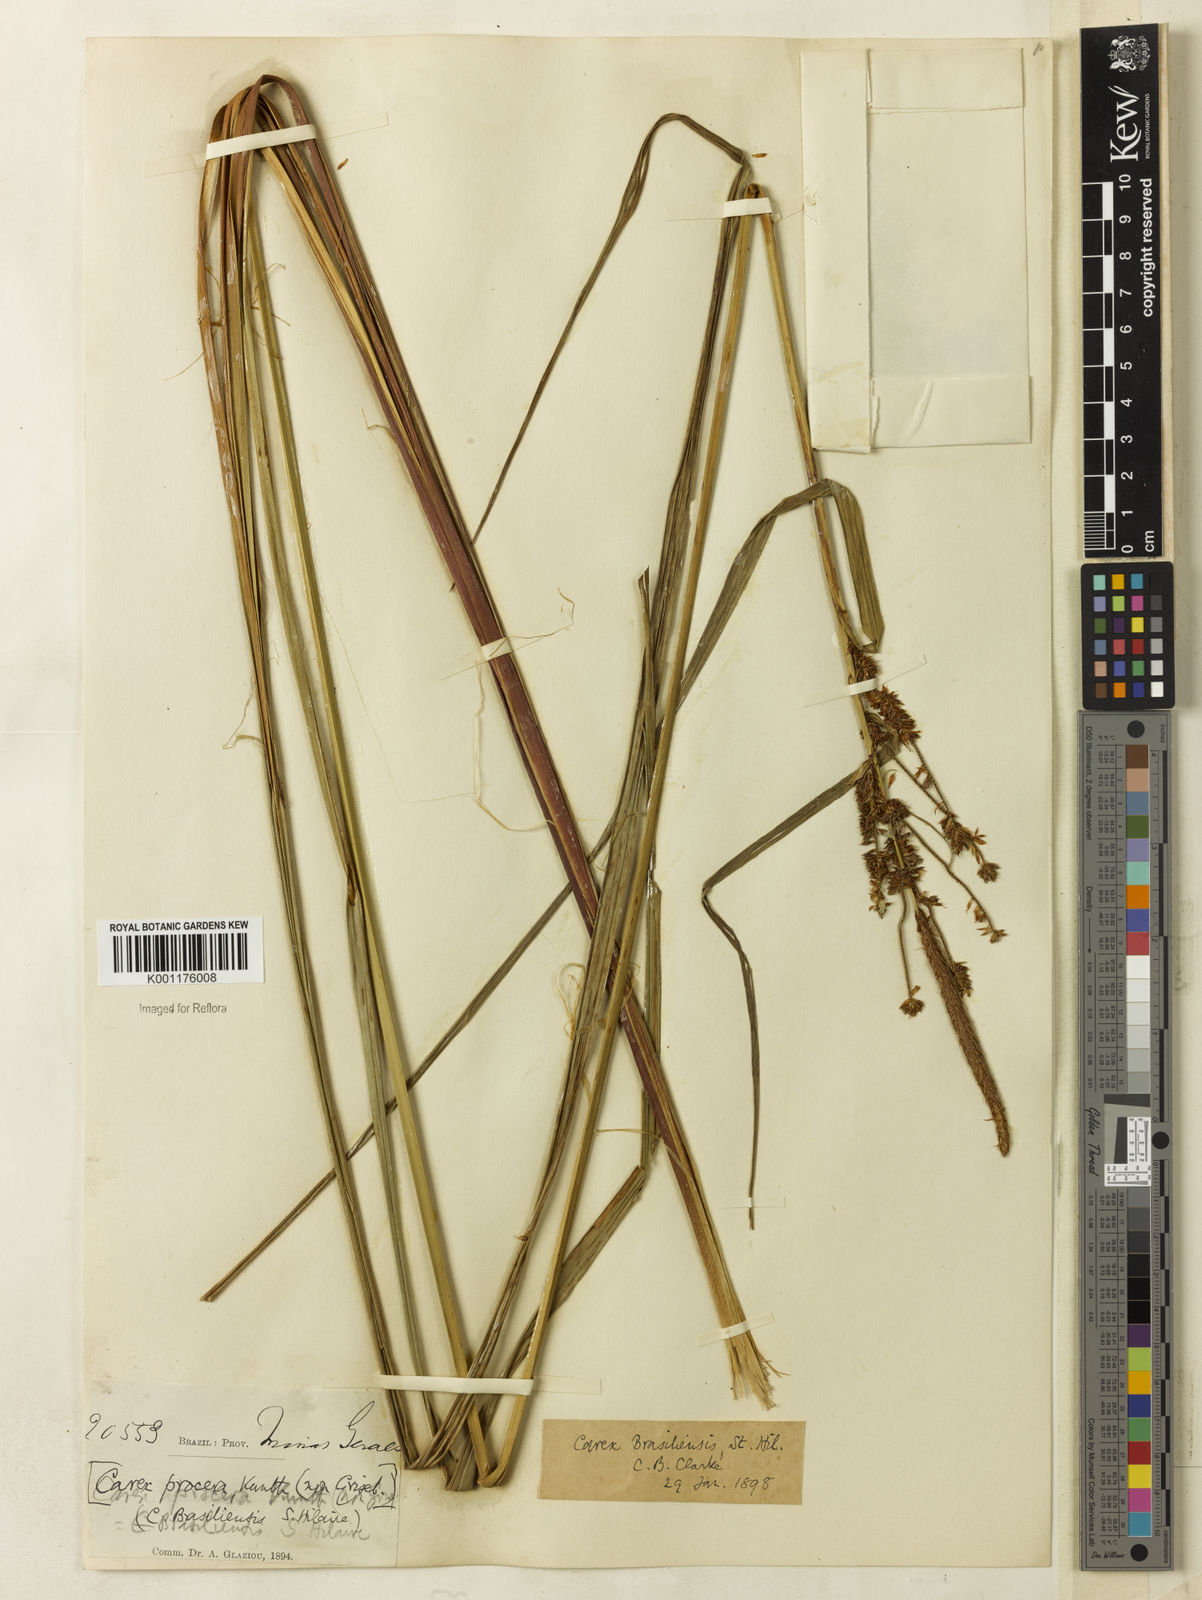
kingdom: Plantae
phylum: Tracheophyta
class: Liliopsida
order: Poales
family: Cyperaceae
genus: Carex
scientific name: Carex brasiliensis
